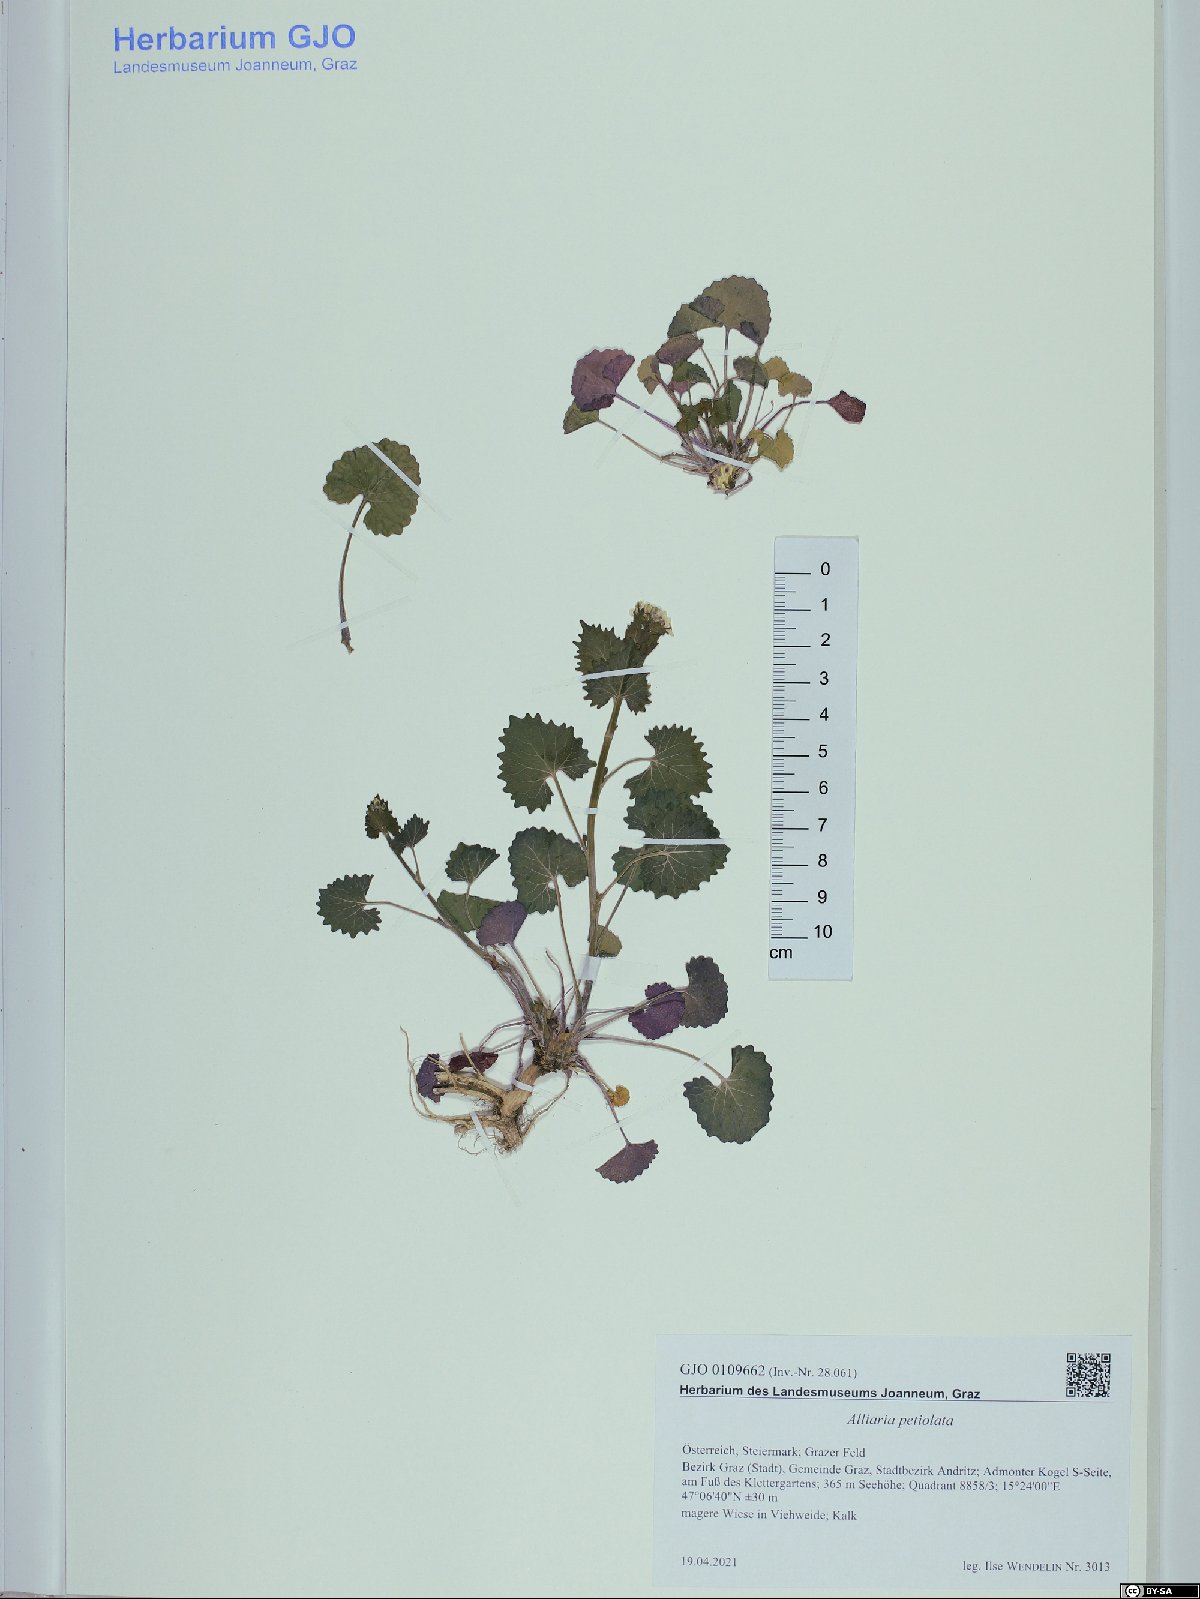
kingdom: Plantae
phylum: Tracheophyta
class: Magnoliopsida
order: Brassicales
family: Brassicaceae
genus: Alliaria
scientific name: Alliaria petiolata
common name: Garlic mustard
